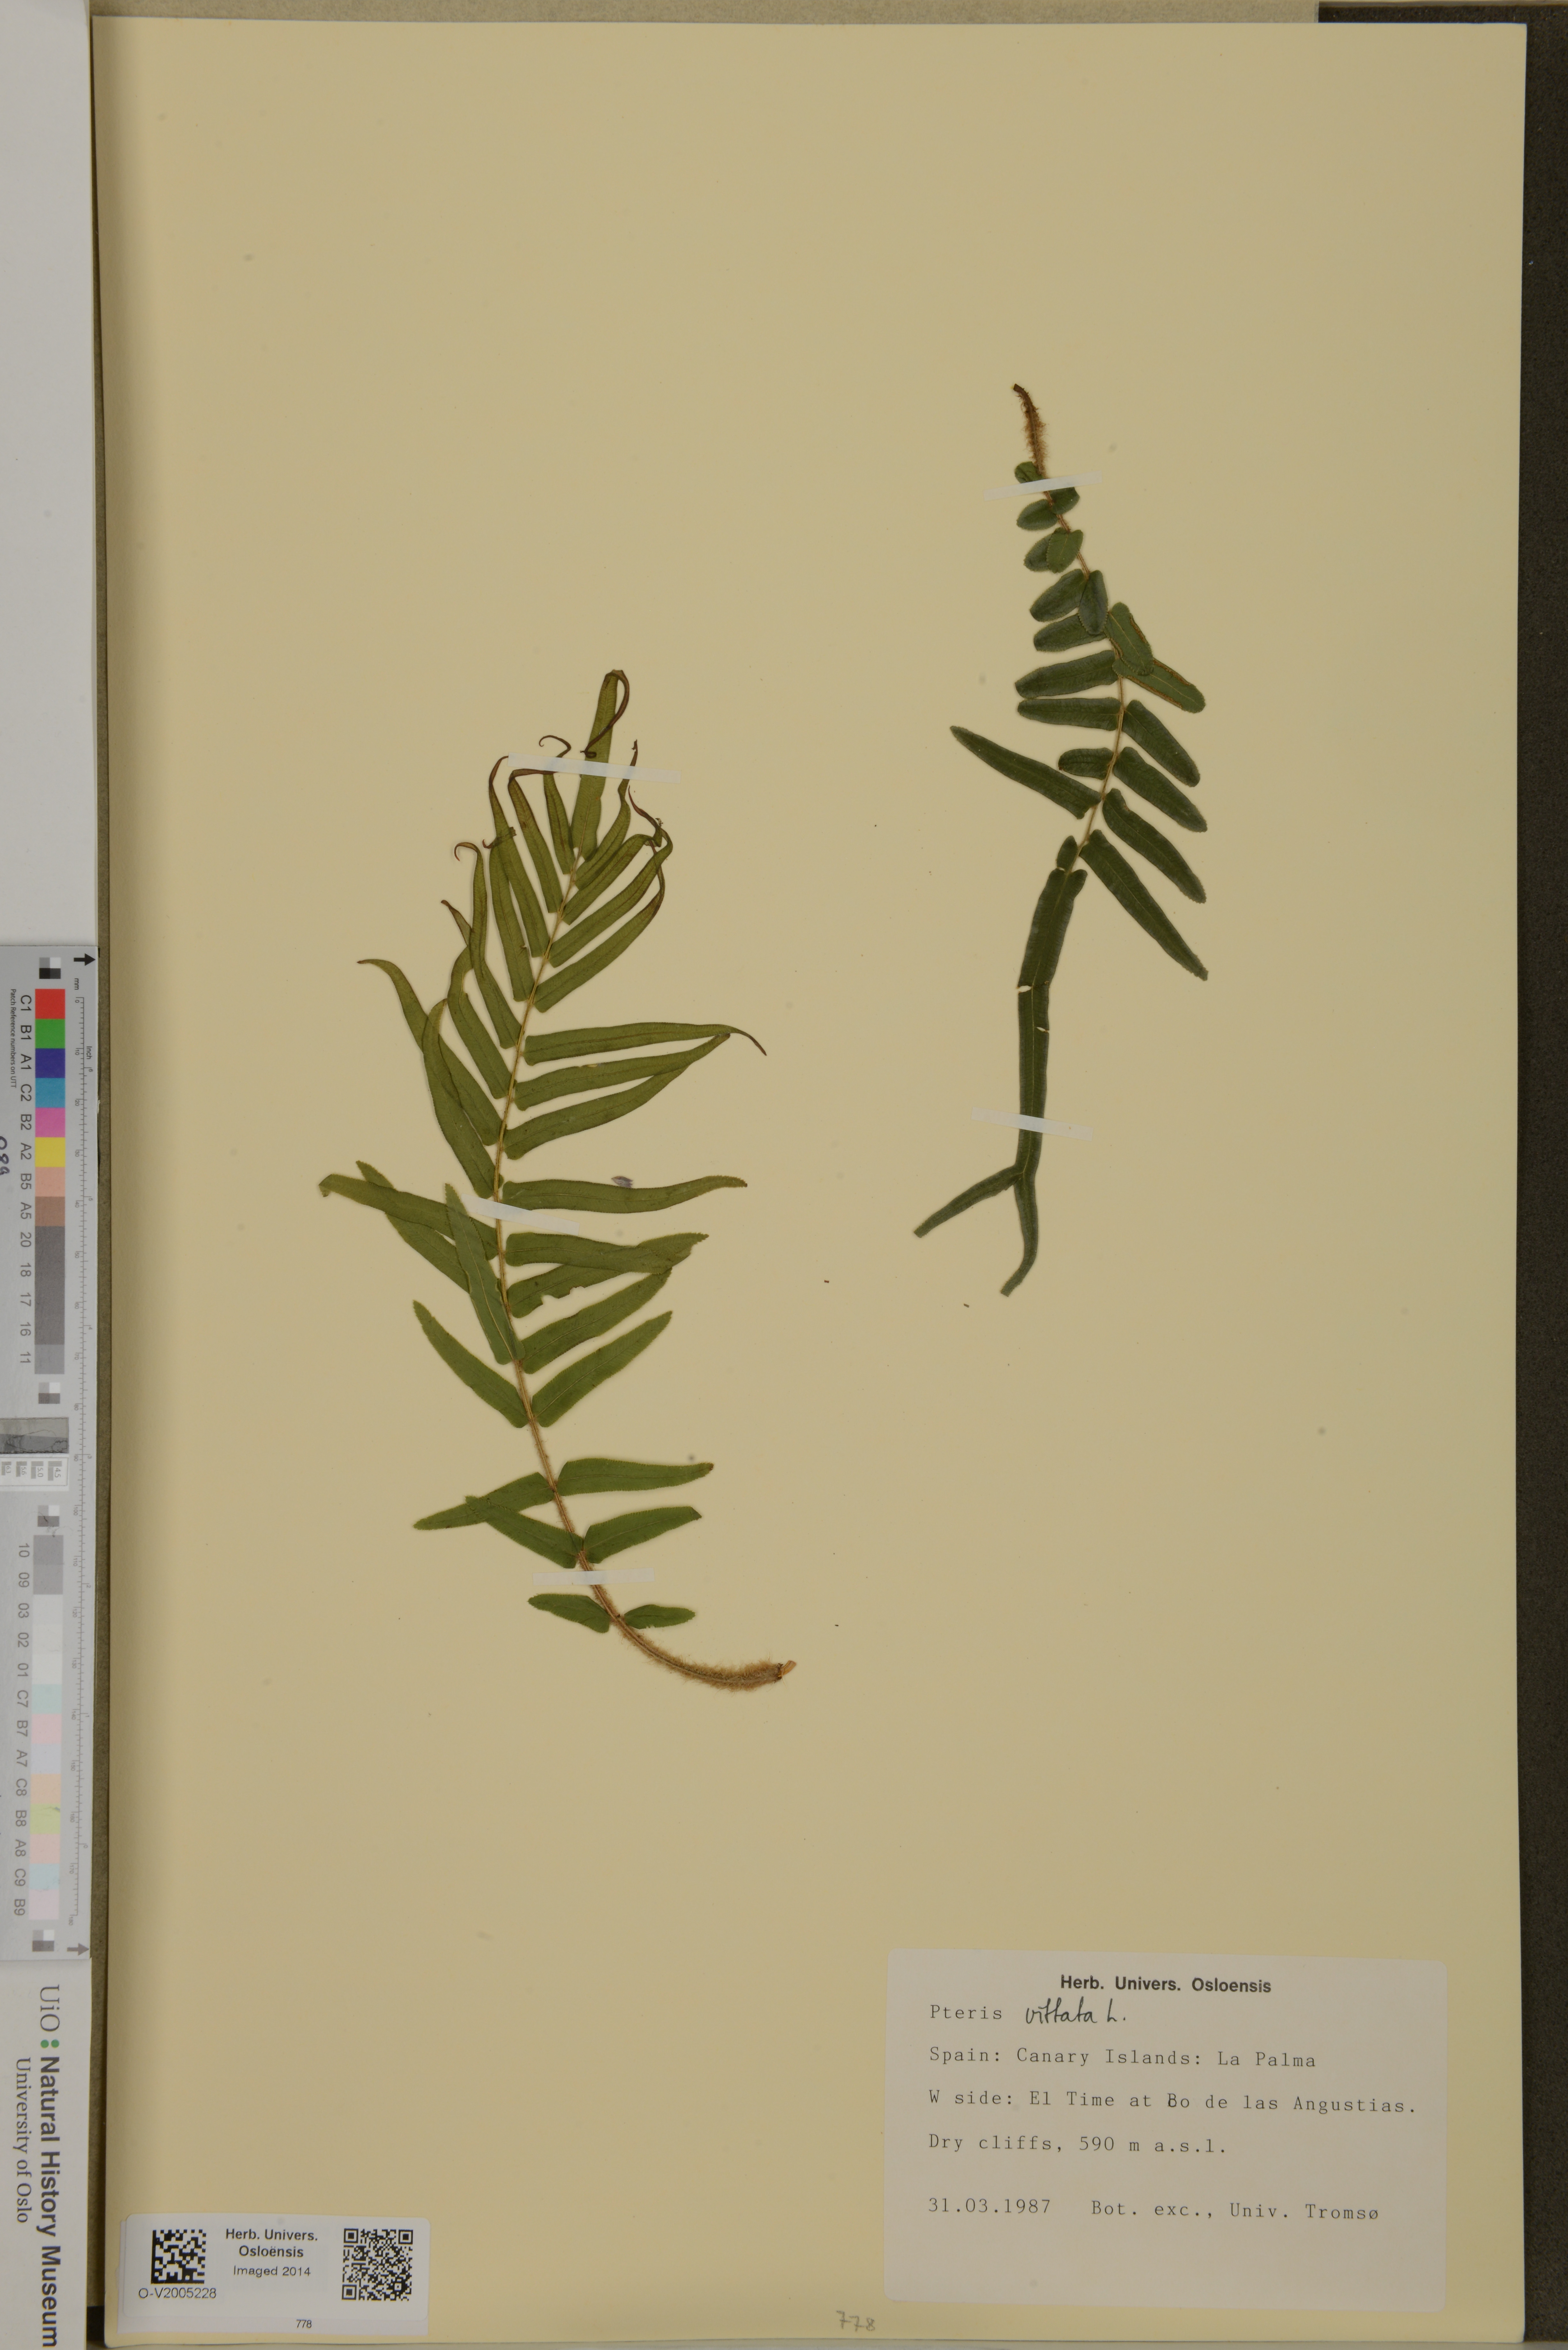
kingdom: Plantae
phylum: Tracheophyta
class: Polypodiopsida
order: Polypodiales
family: Pteridaceae
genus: Pteris
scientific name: Pteris vittata
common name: Ladder brake
